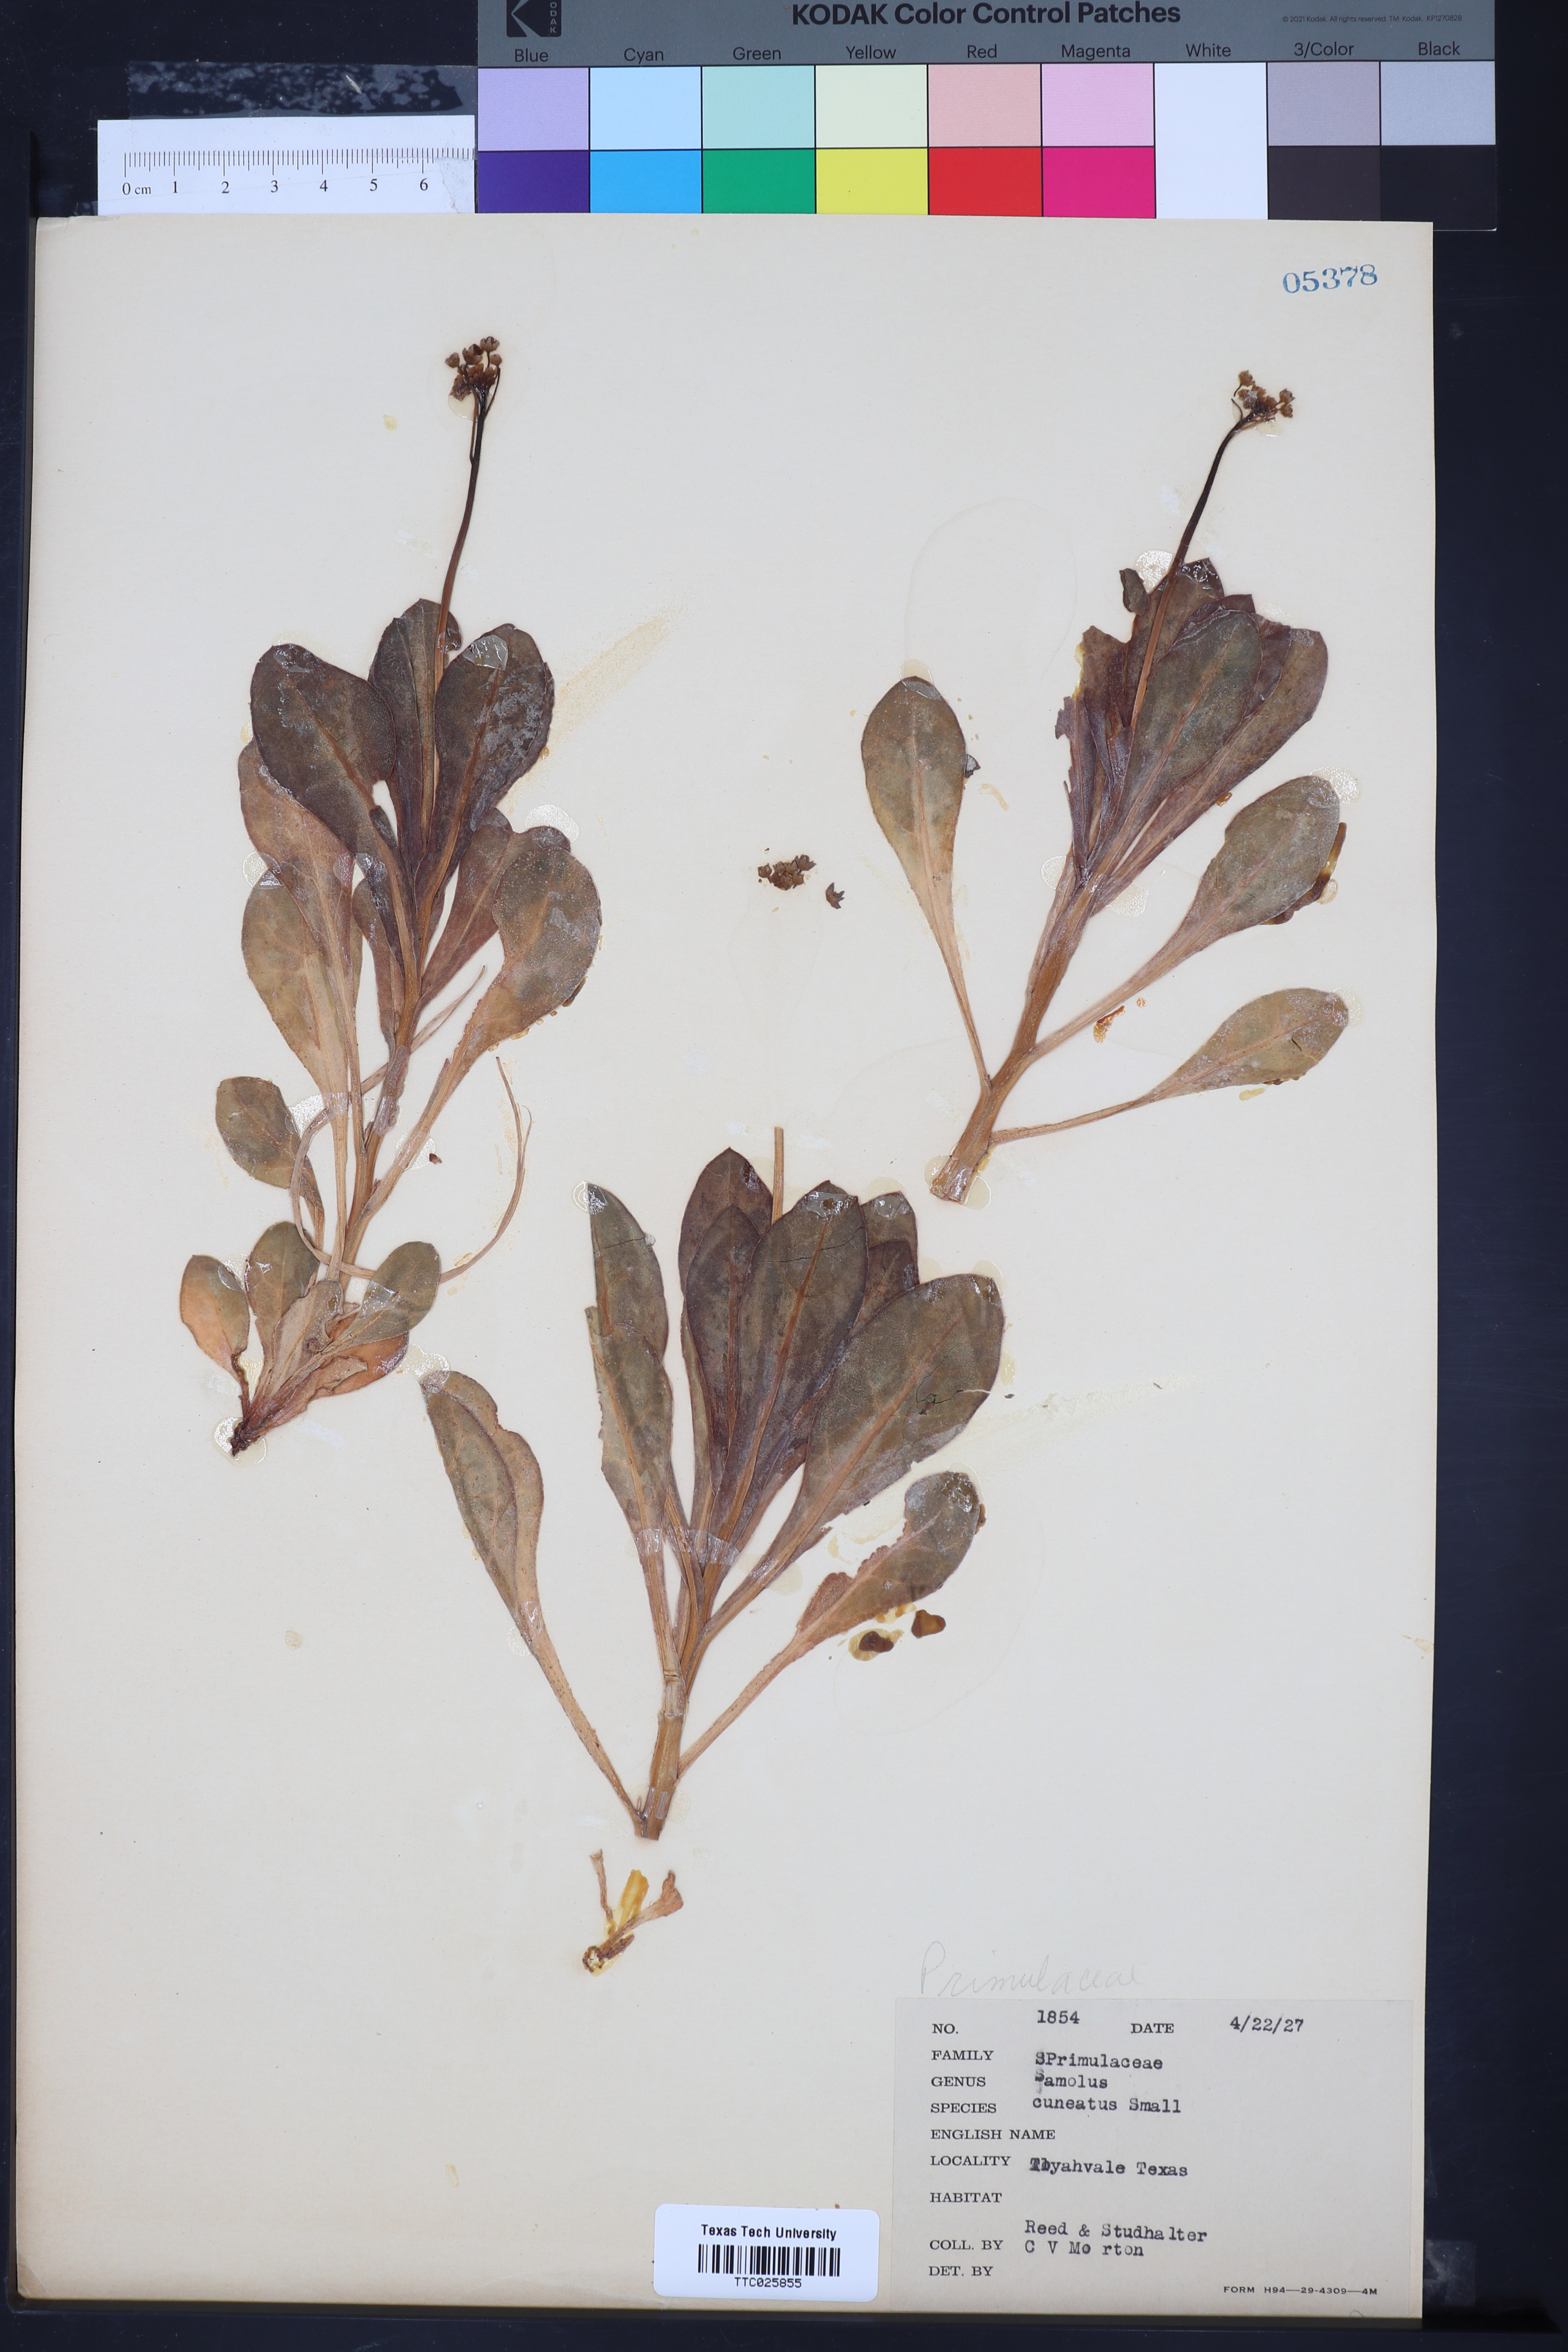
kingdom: Plantae
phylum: Tracheophyta
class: Magnoliopsida
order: Ericales
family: Primulaceae
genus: Samolus
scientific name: Samolus ebracteatus
